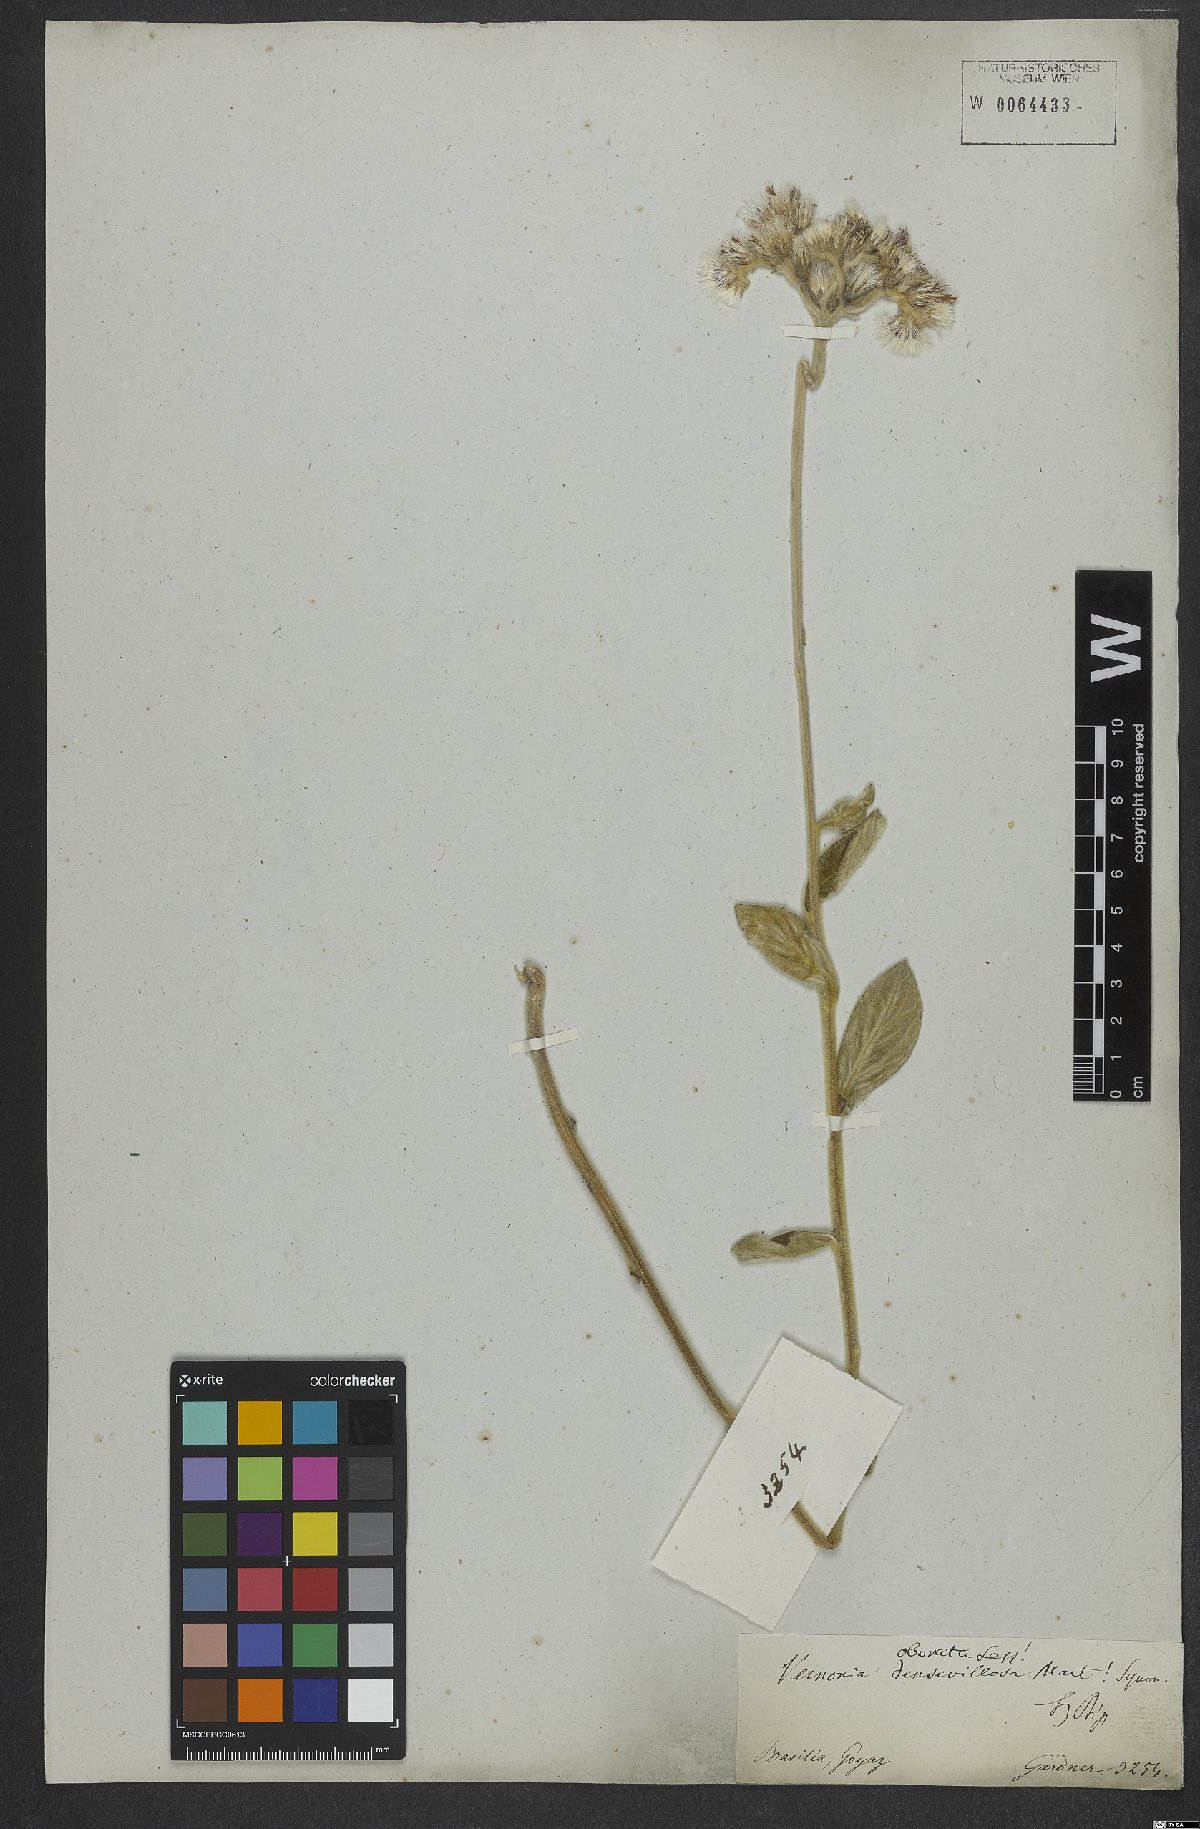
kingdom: Plantae
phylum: Tracheophyta
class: Magnoliopsida
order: Asterales
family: Asteraceae
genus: Chrysolaena
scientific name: Chrysolaena obovata
